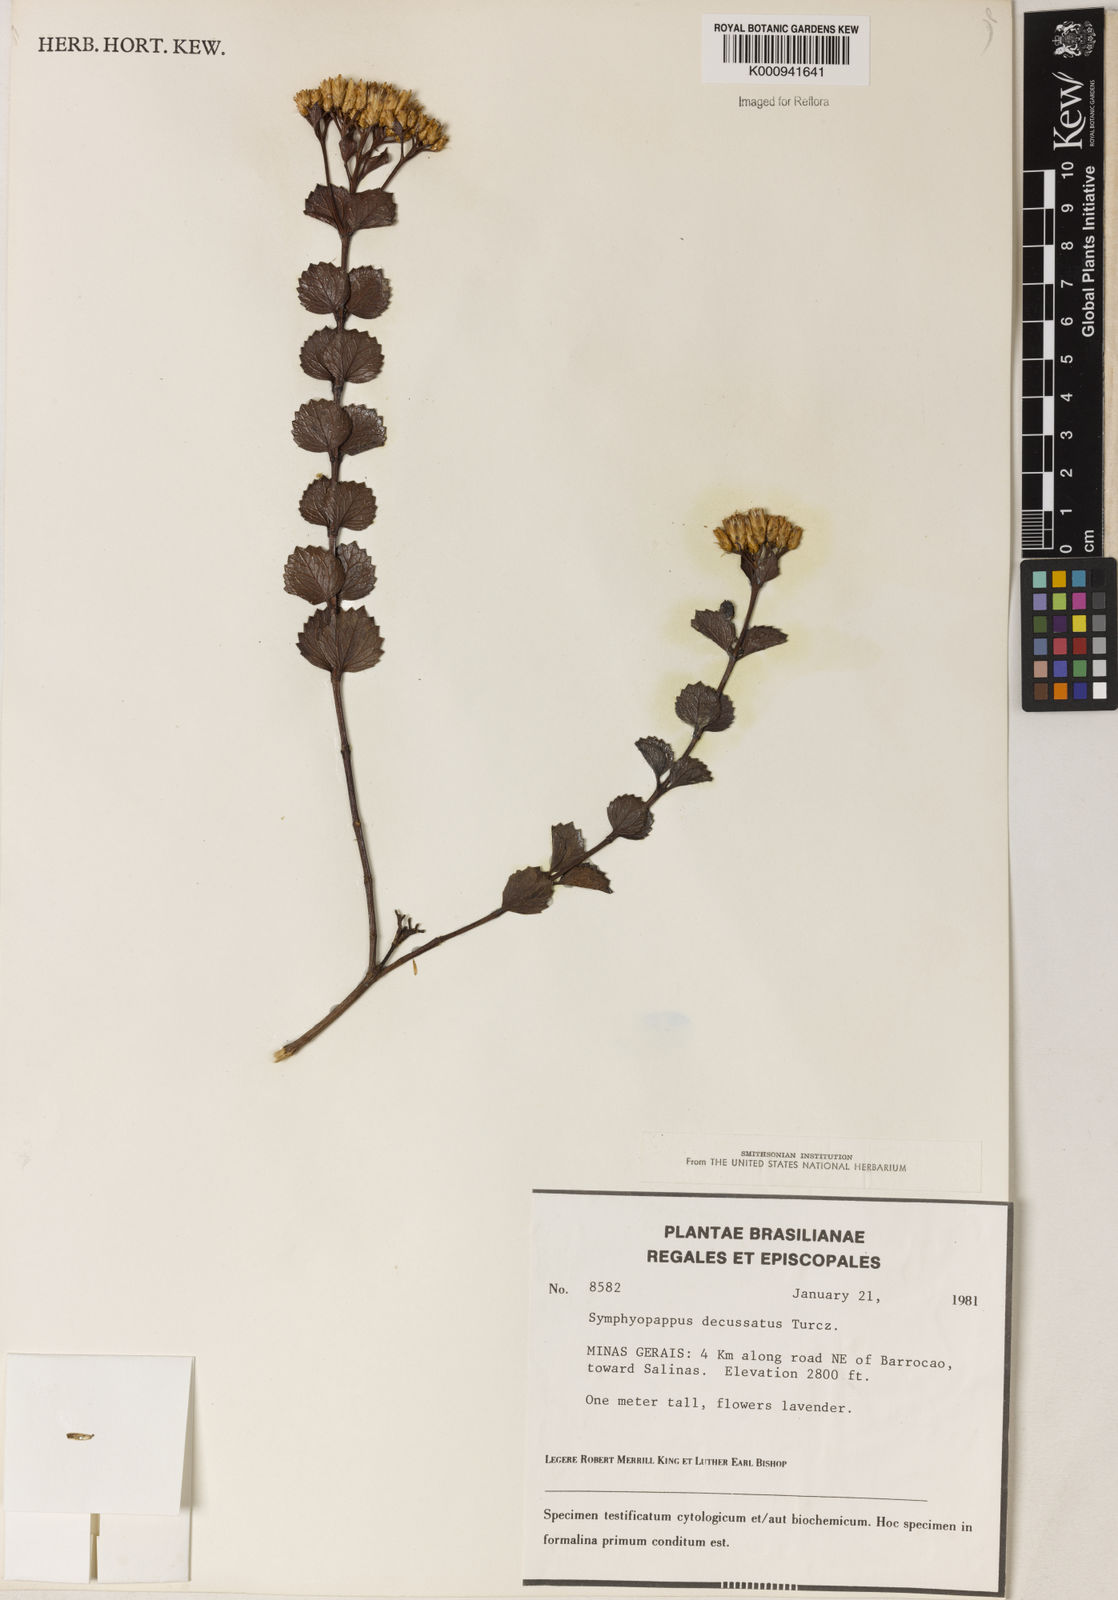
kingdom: Plantae
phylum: Tracheophyta
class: Magnoliopsida
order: Asterales
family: Asteraceae
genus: Symphyopappus
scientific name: Symphyopappus decussatus
